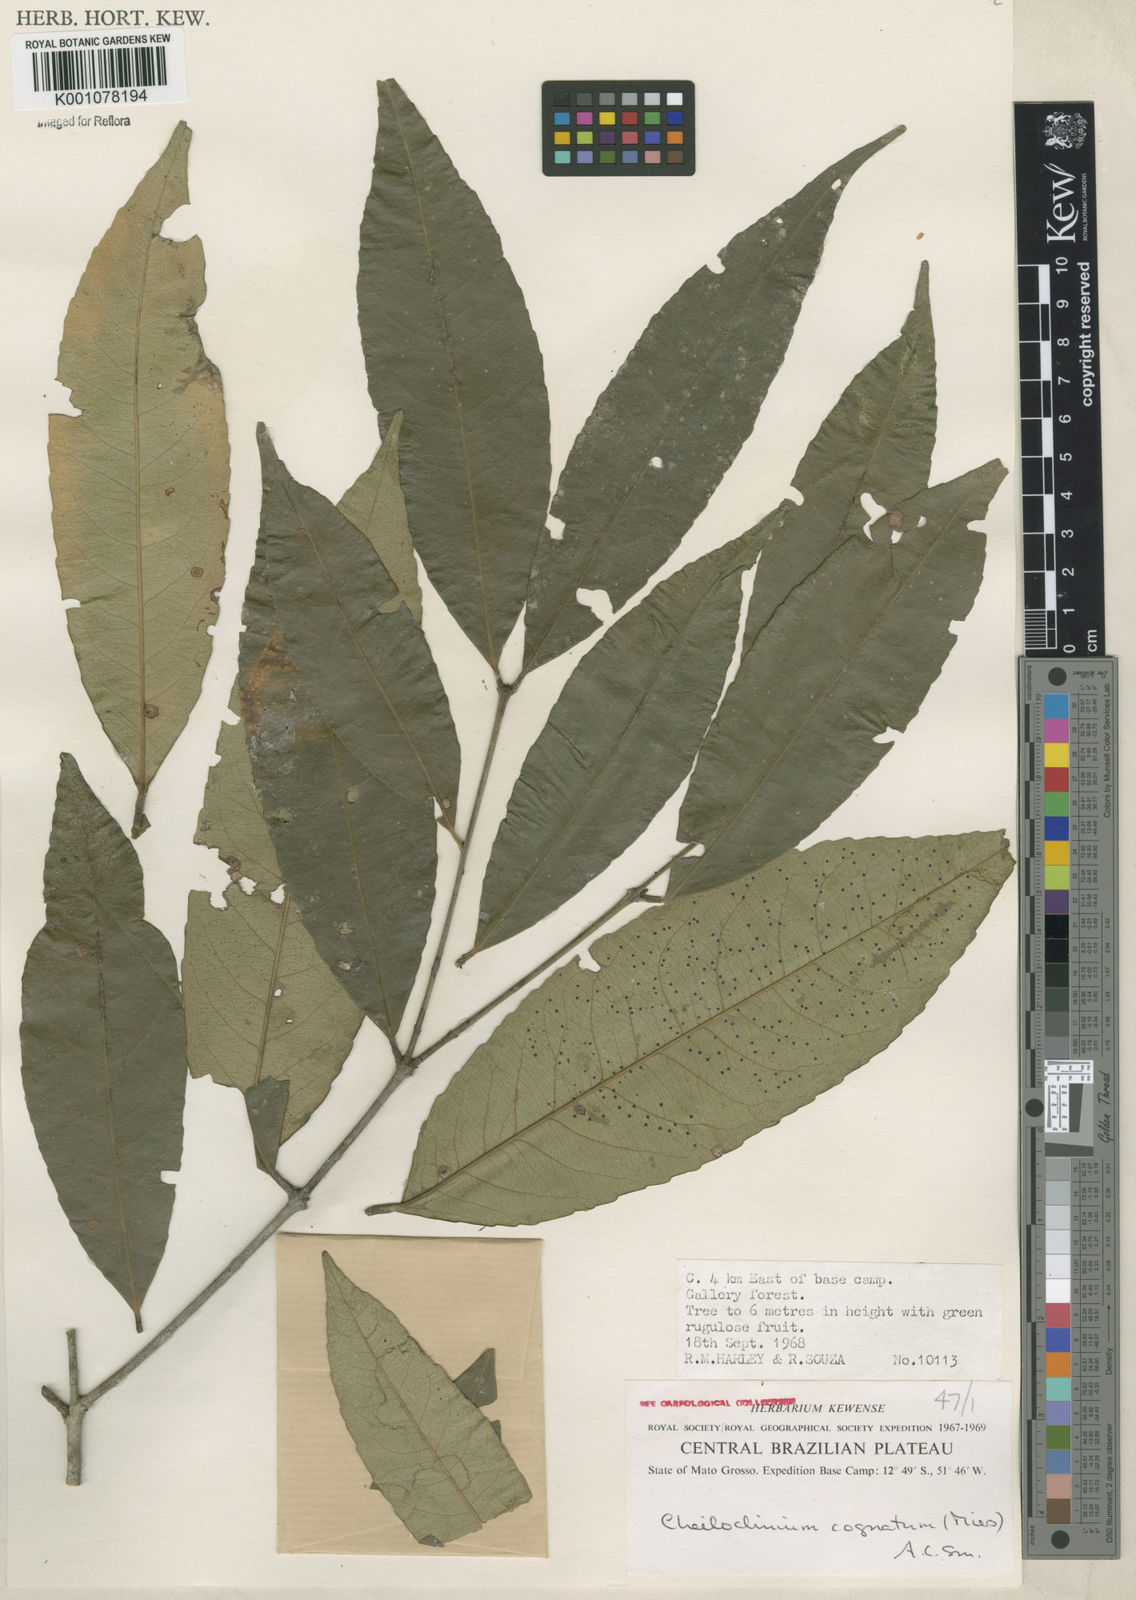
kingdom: Plantae
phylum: Tracheophyta
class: Magnoliopsida
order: Celastrales
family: Celastraceae
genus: Cheiloclinium
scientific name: Cheiloclinium cognatum
